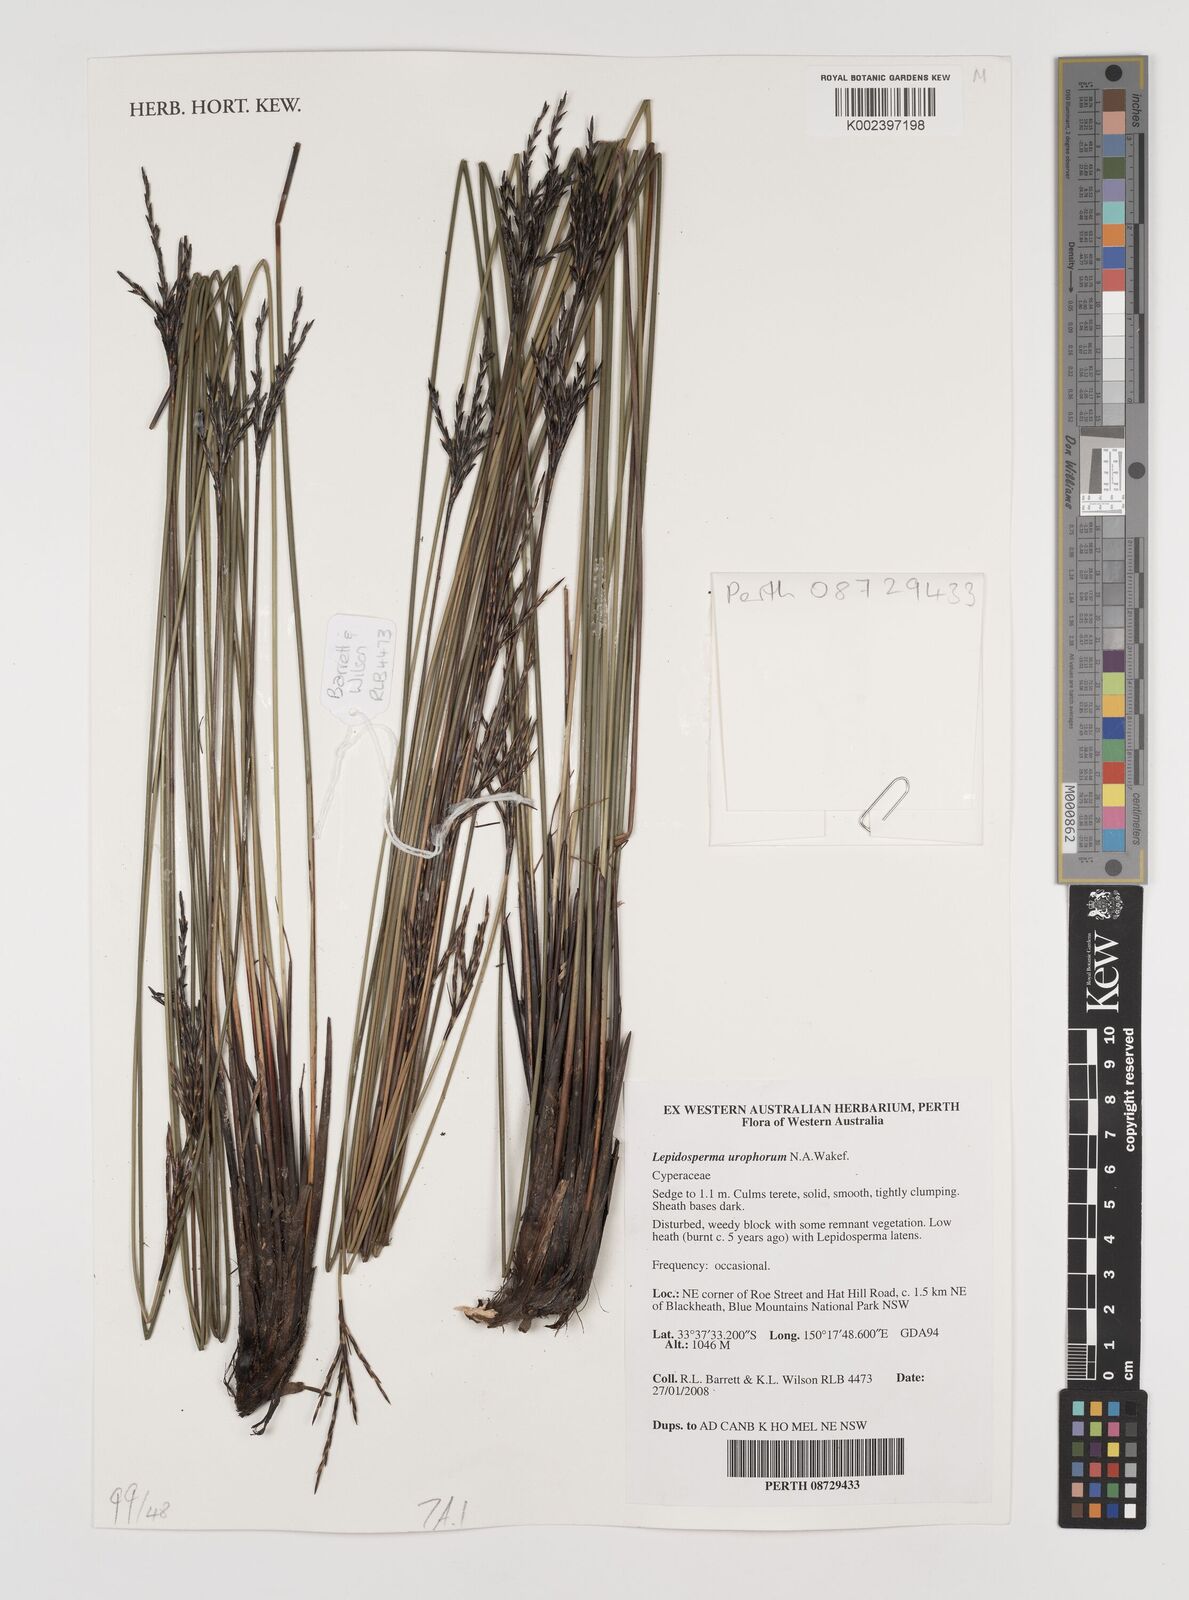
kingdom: Plantae
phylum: Tracheophyta
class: Liliopsida
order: Poales
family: Cyperaceae
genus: Lepidosperma
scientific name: Lepidosperma urophorum
